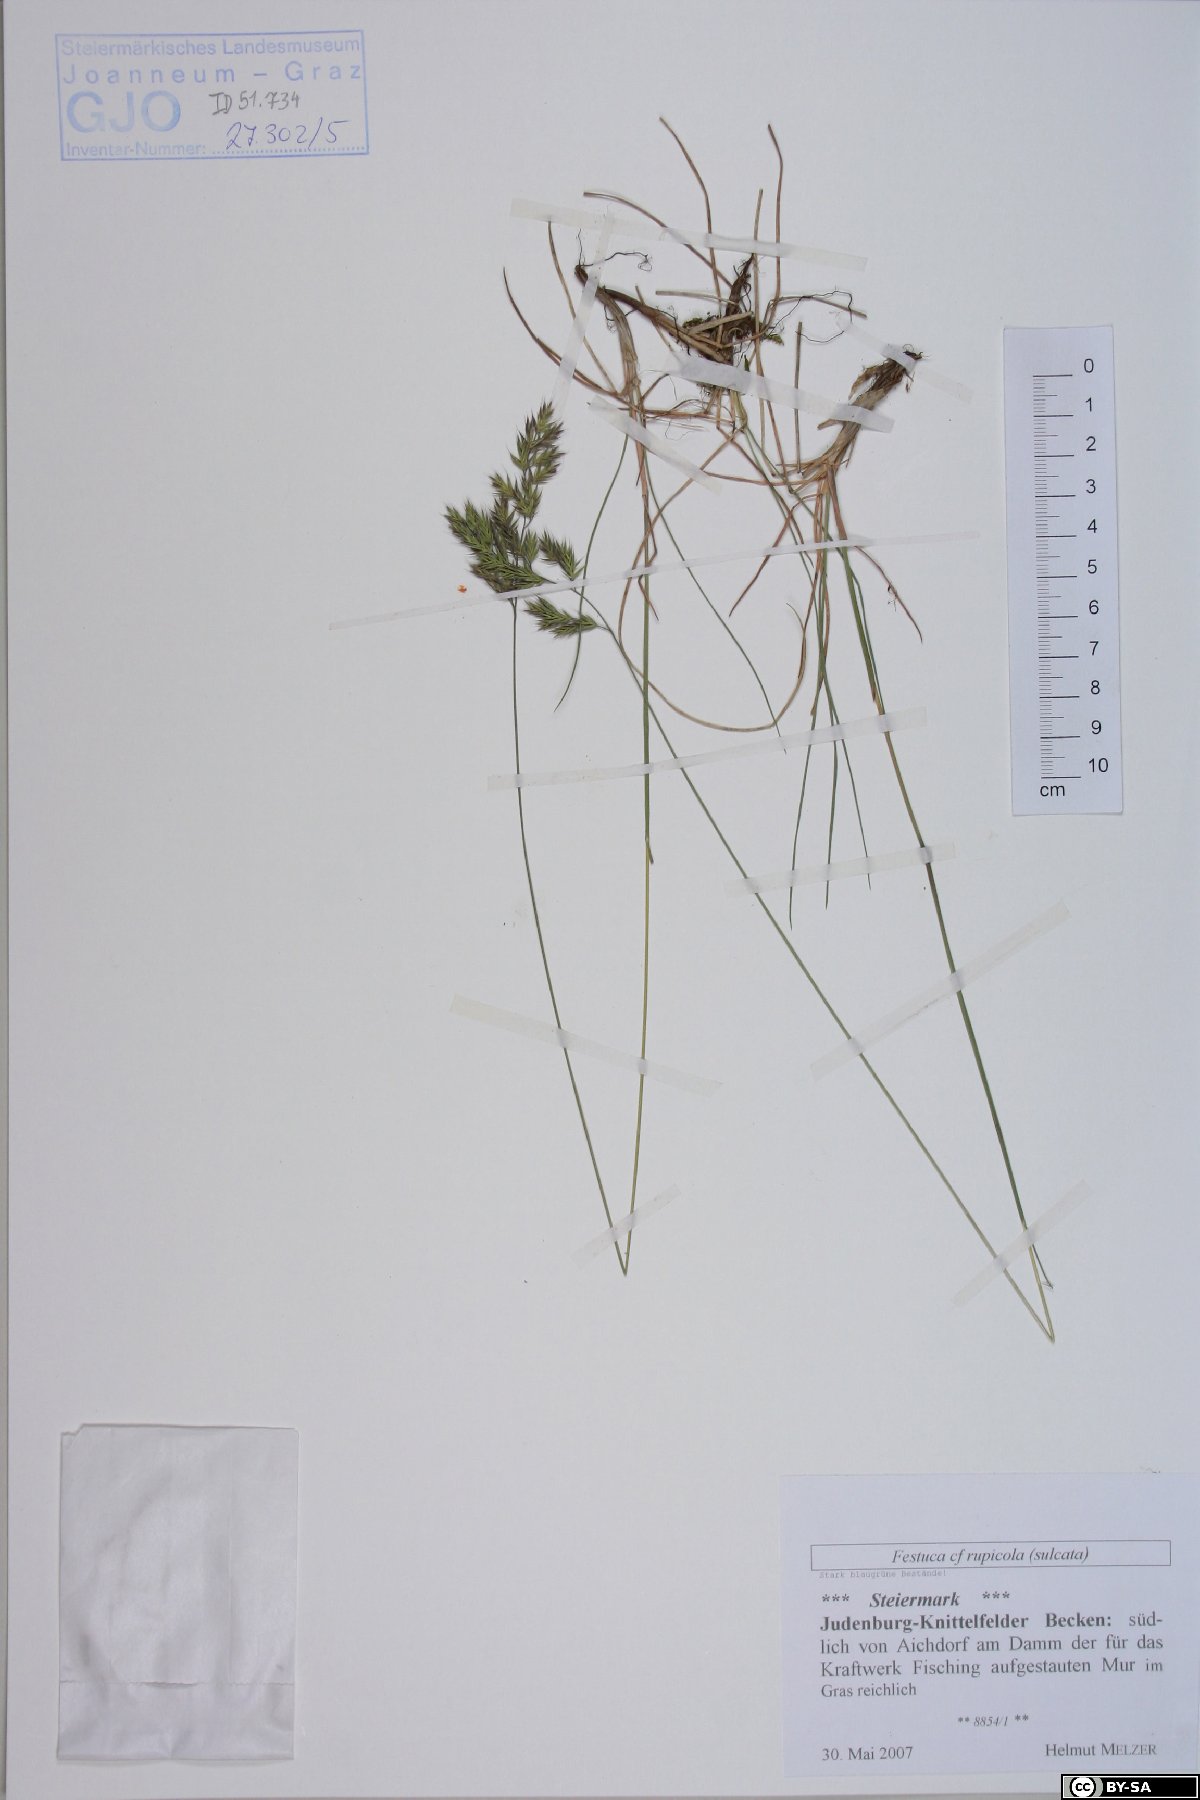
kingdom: Plantae
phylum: Tracheophyta
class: Liliopsida
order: Poales
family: Poaceae
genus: Festuca
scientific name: Festuca rupicola
